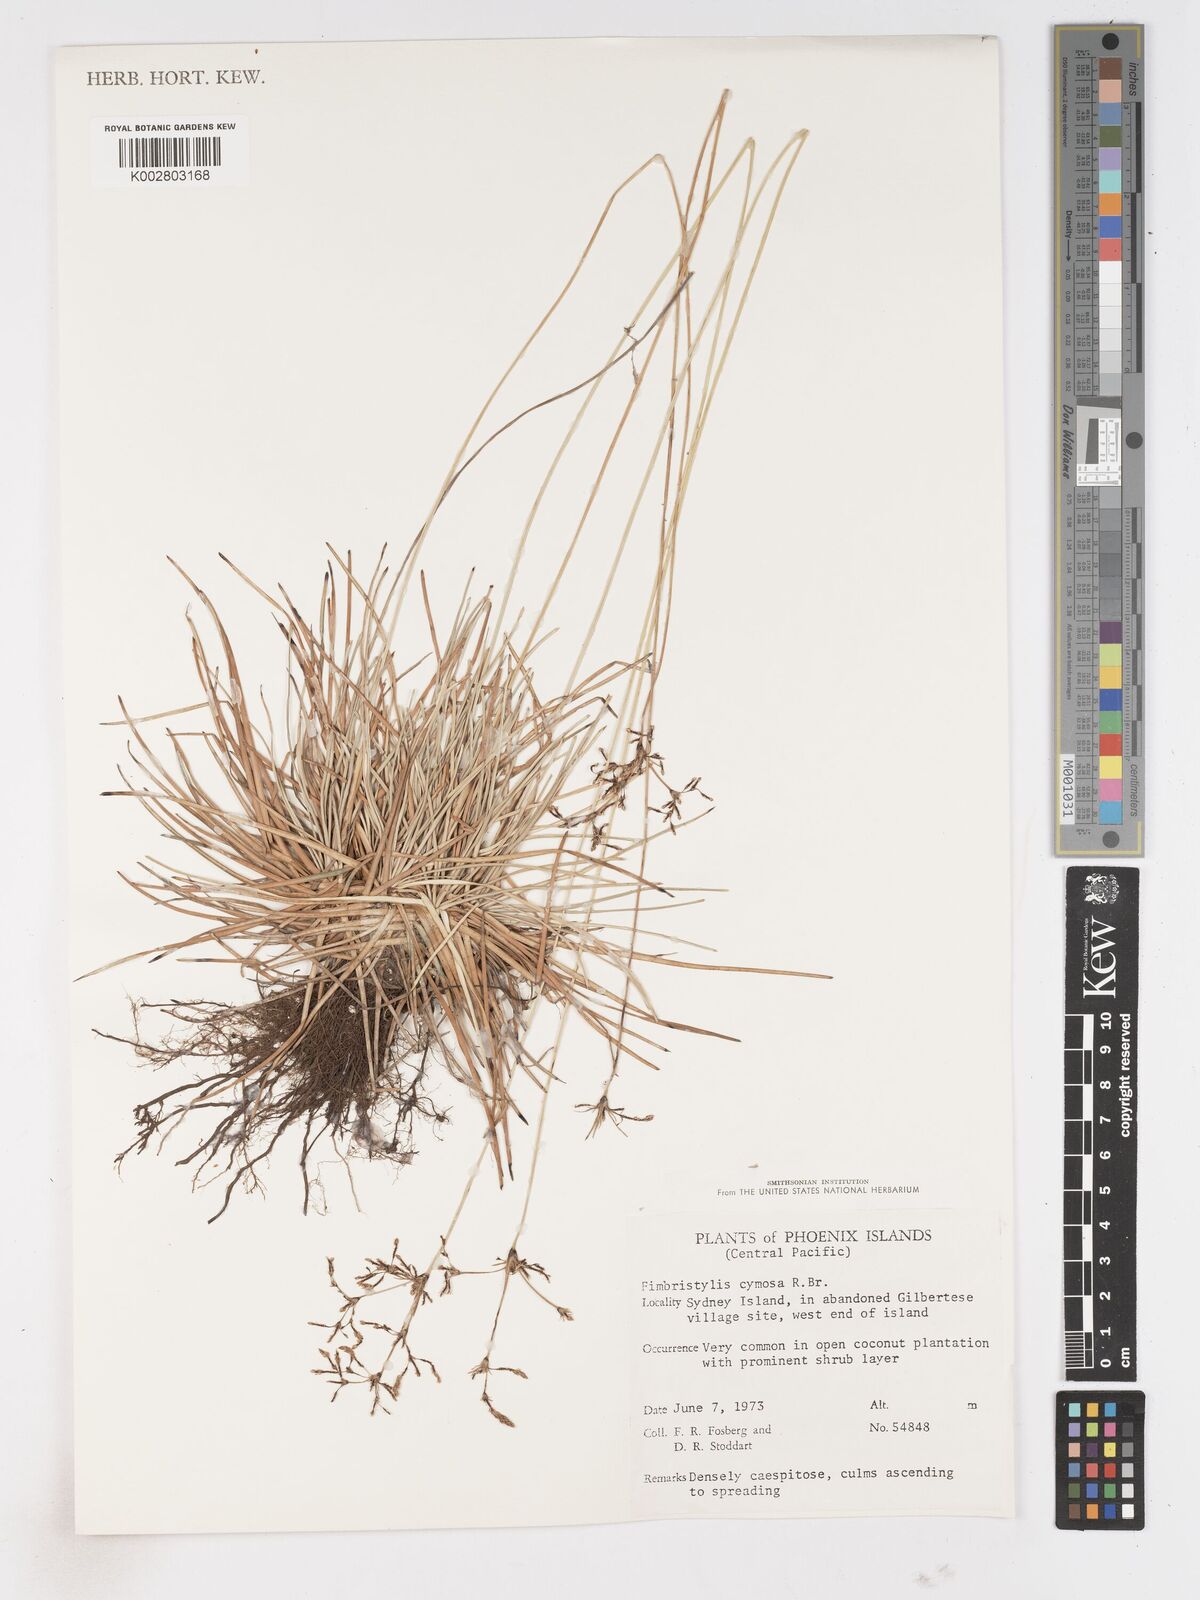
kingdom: Plantae
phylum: Tracheophyta
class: Liliopsida
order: Poales
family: Cyperaceae
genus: Fimbristylis
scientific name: Fimbristylis cymosa
